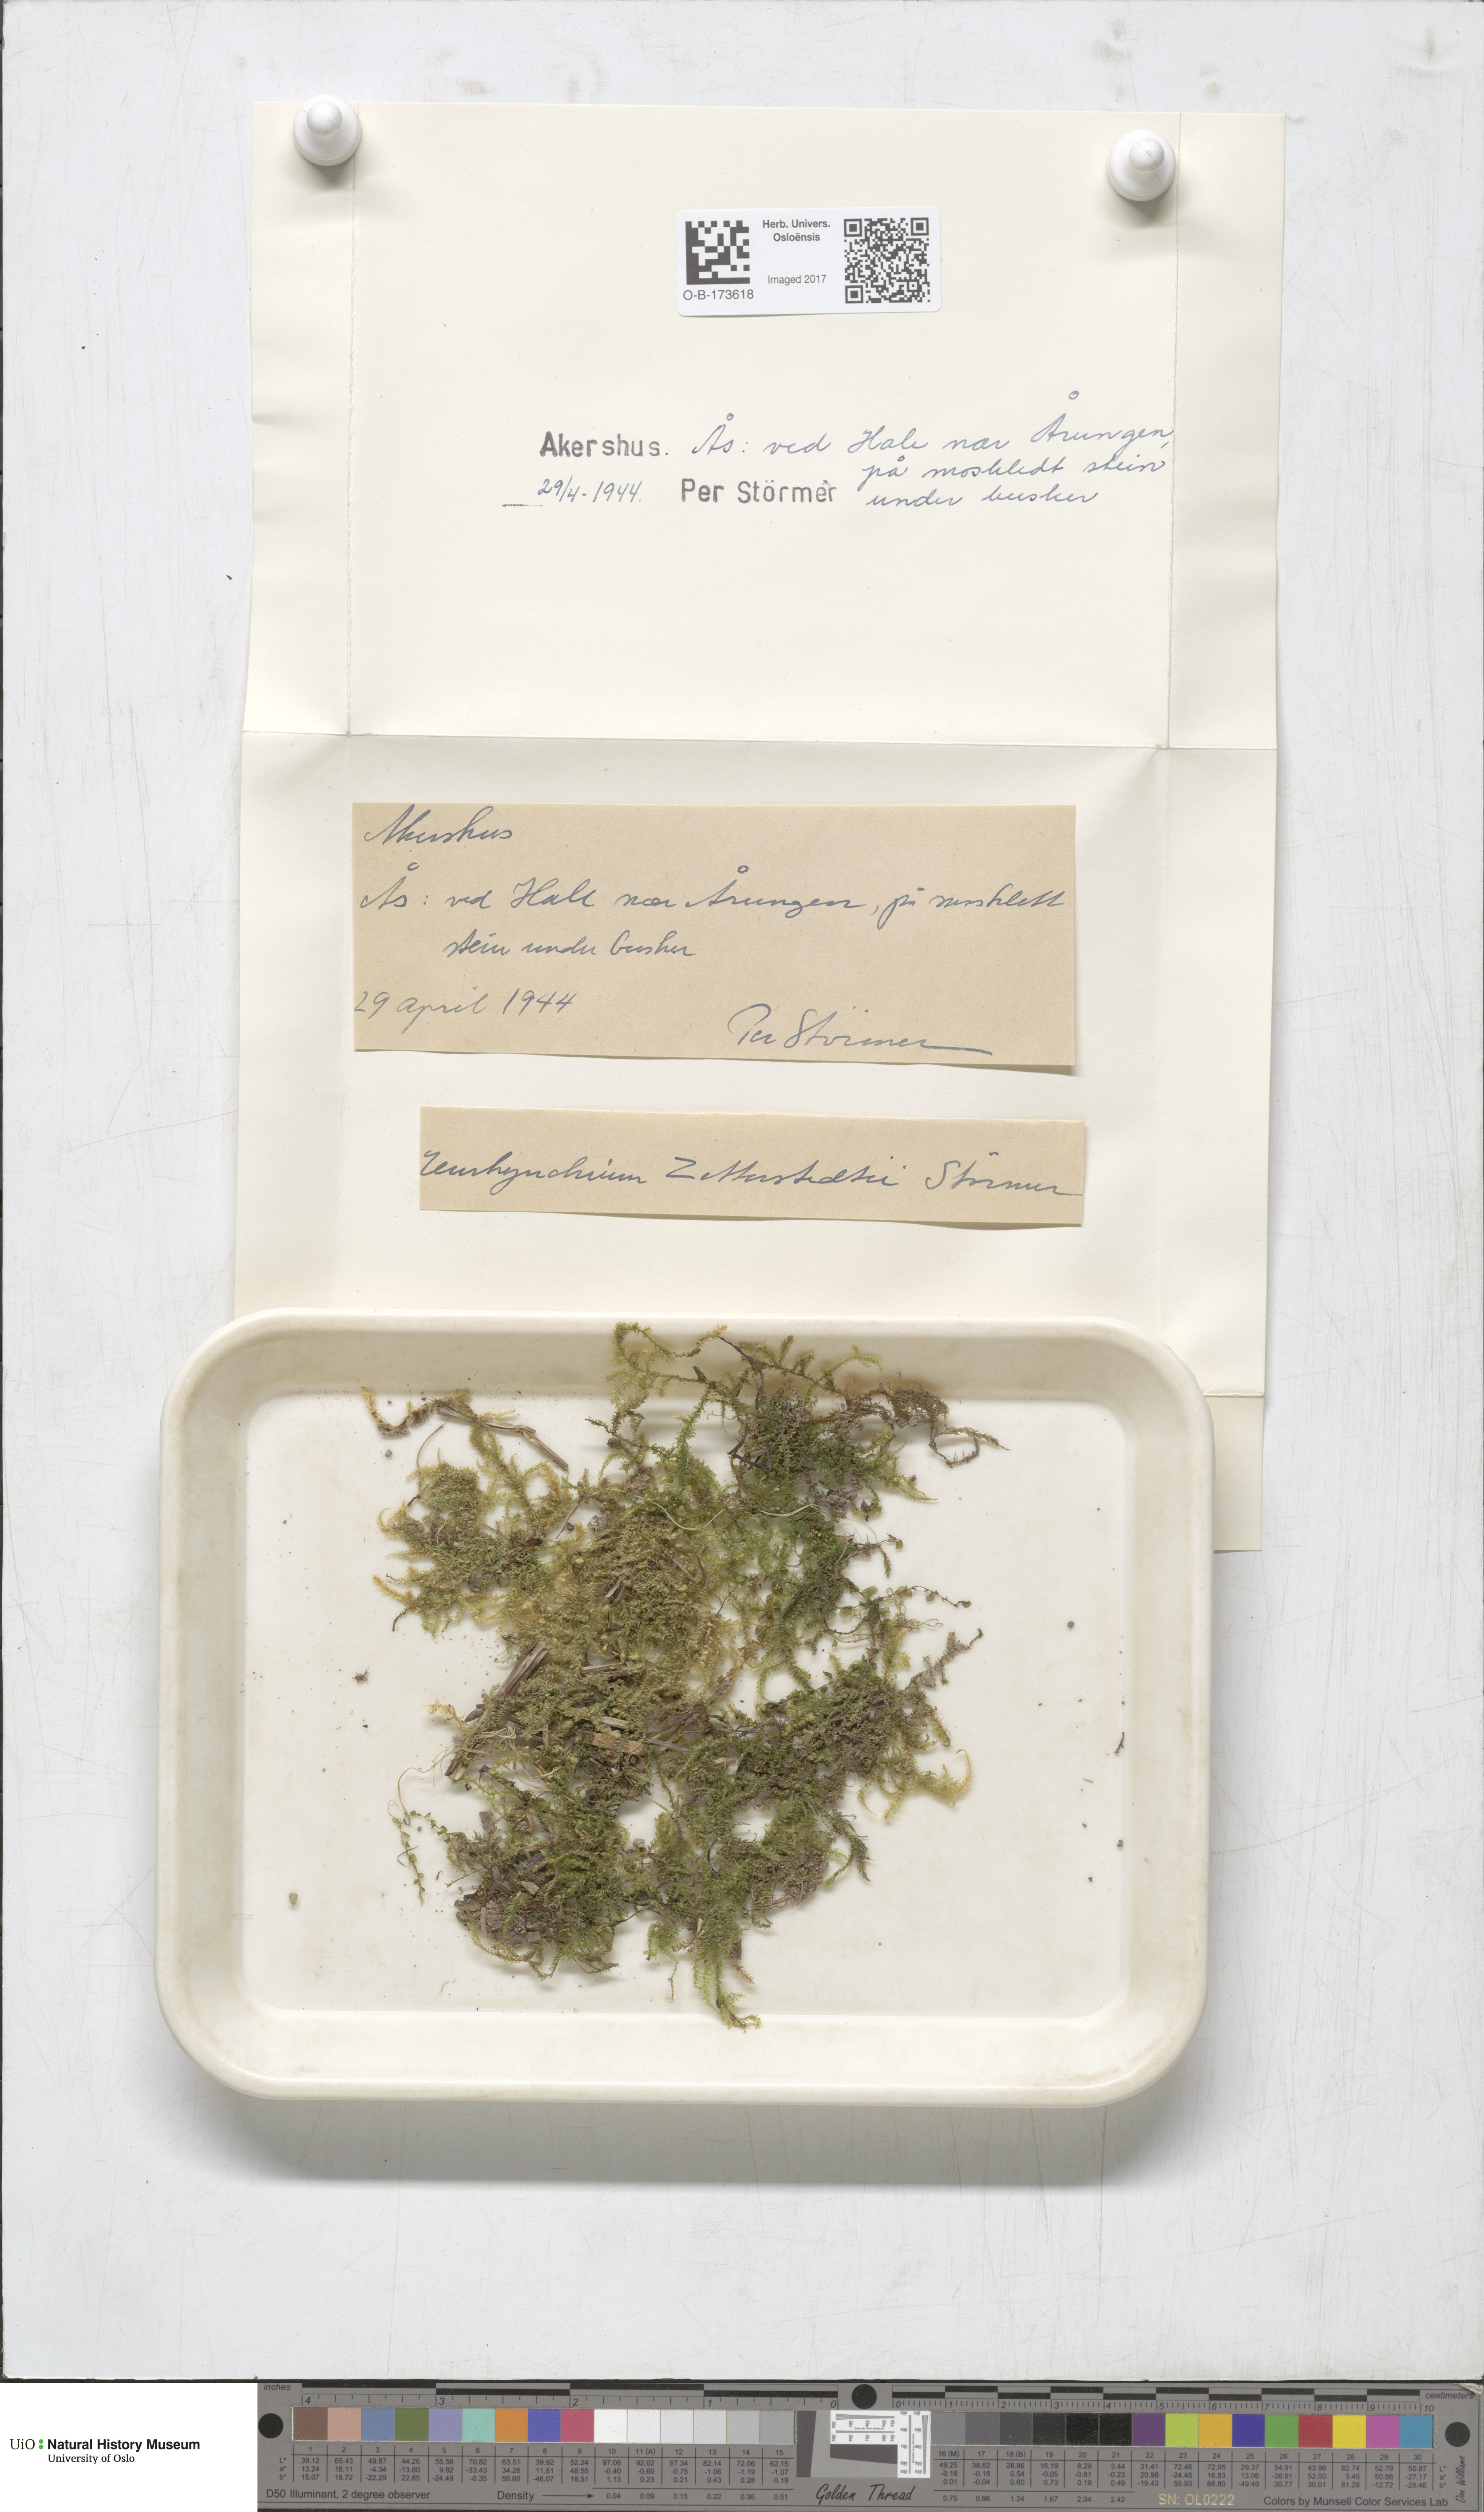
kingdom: Plantae
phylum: Bryophyta
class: Bryopsida
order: Hypnales
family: Brachytheciaceae
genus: Eurhynchium
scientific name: Eurhynchium angustirete
